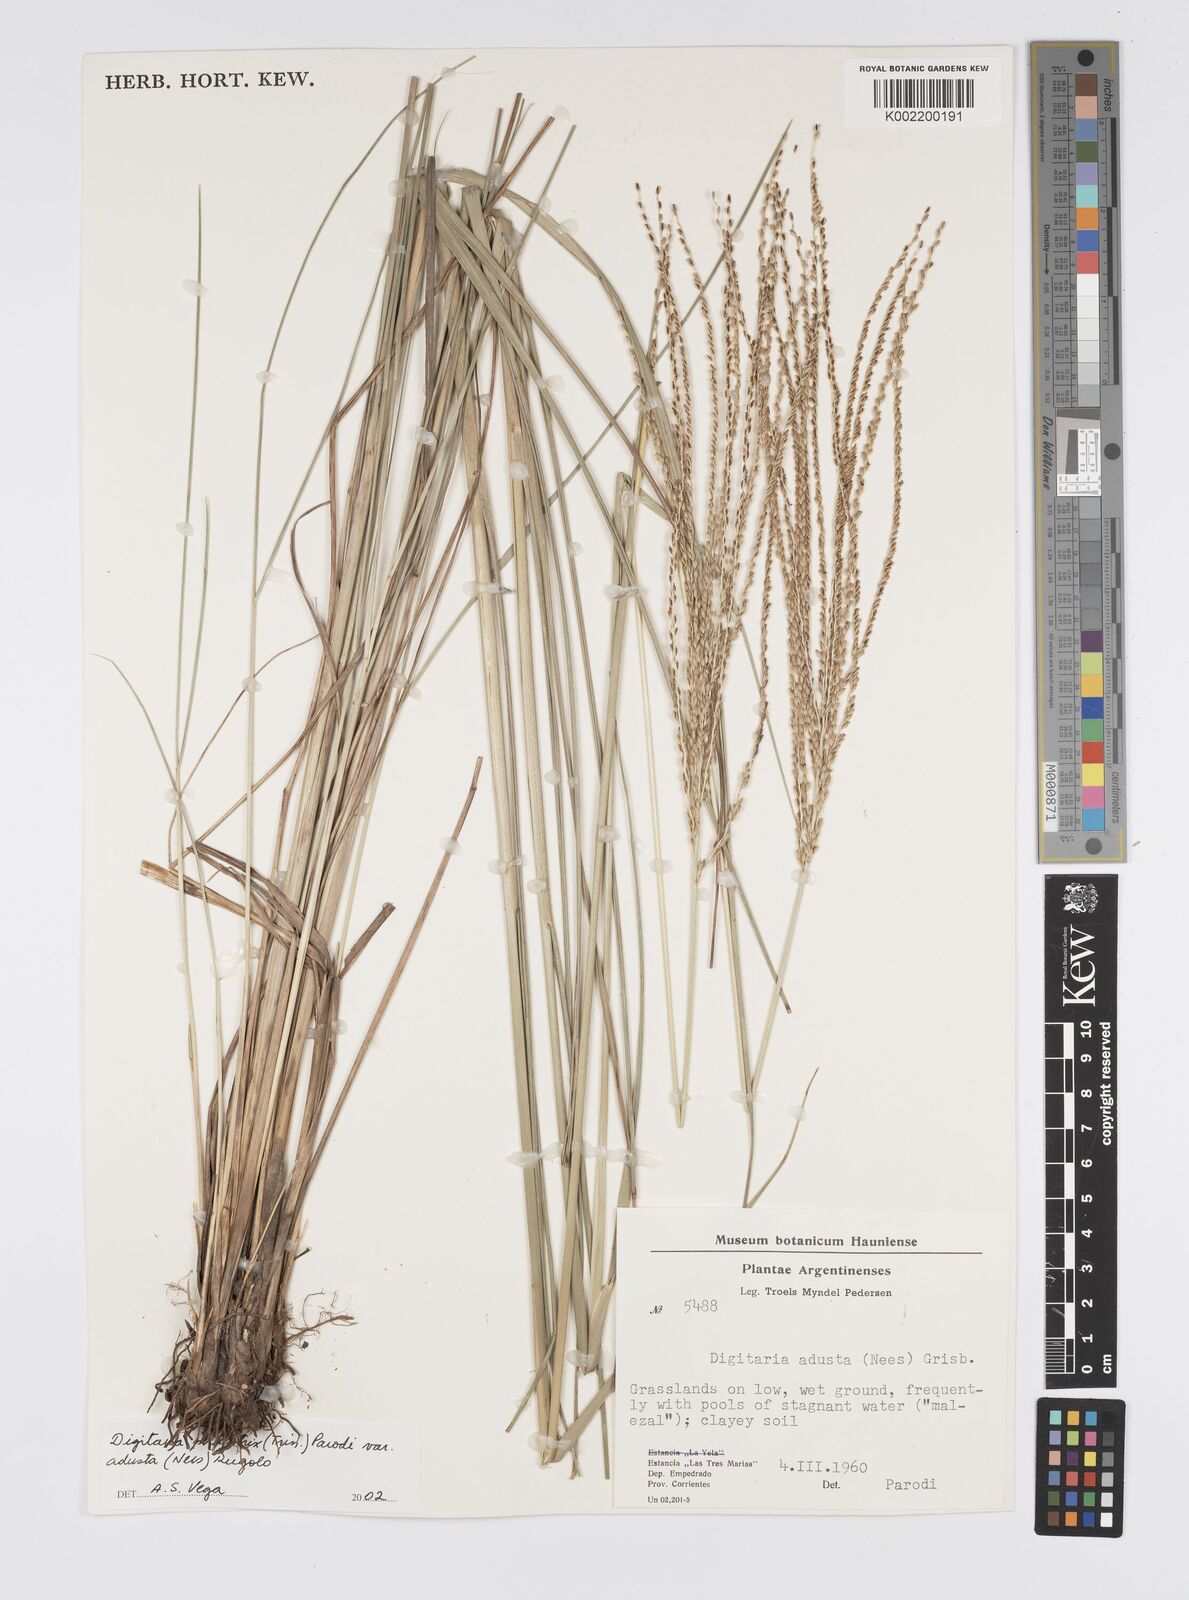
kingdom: Plantae
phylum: Tracheophyta
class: Liliopsida
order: Poales
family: Poaceae
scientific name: Poaceae
